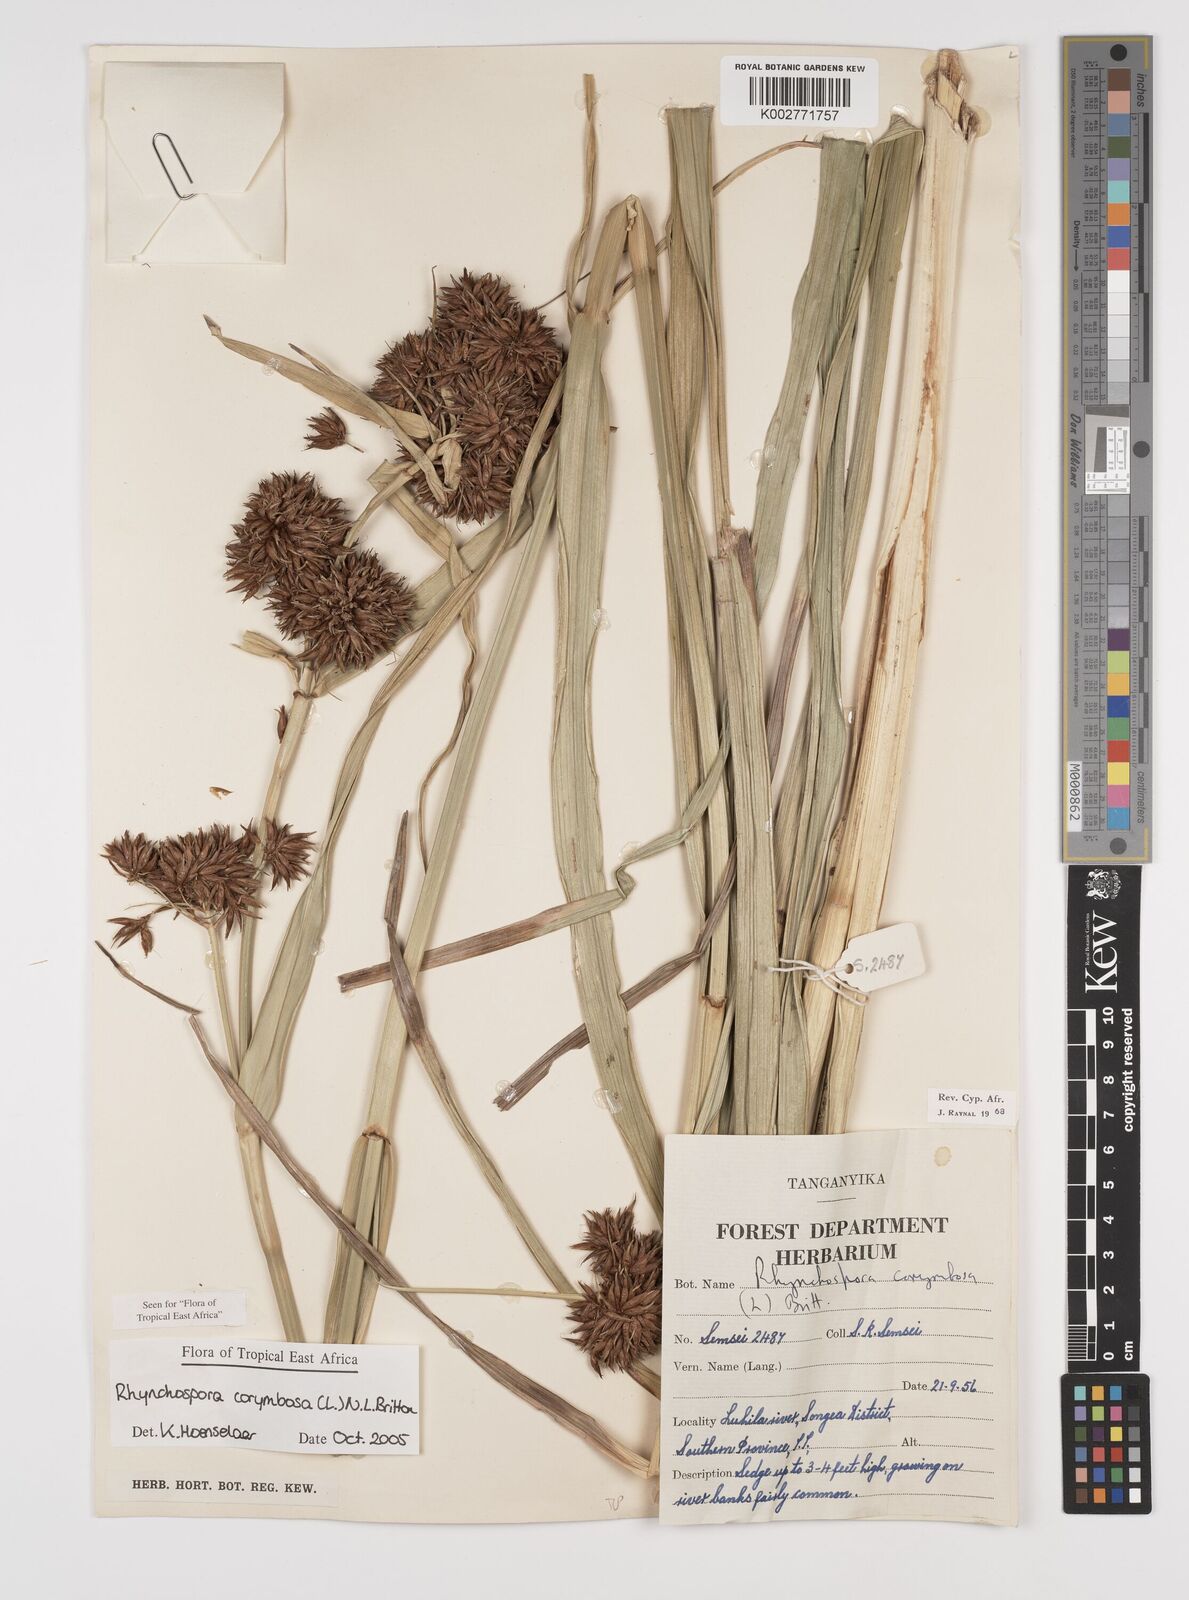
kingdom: Plantae
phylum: Tracheophyta
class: Liliopsida
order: Poales
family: Cyperaceae
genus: Rhynchospora
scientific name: Rhynchospora corymbosa
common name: Golden beak sedge
